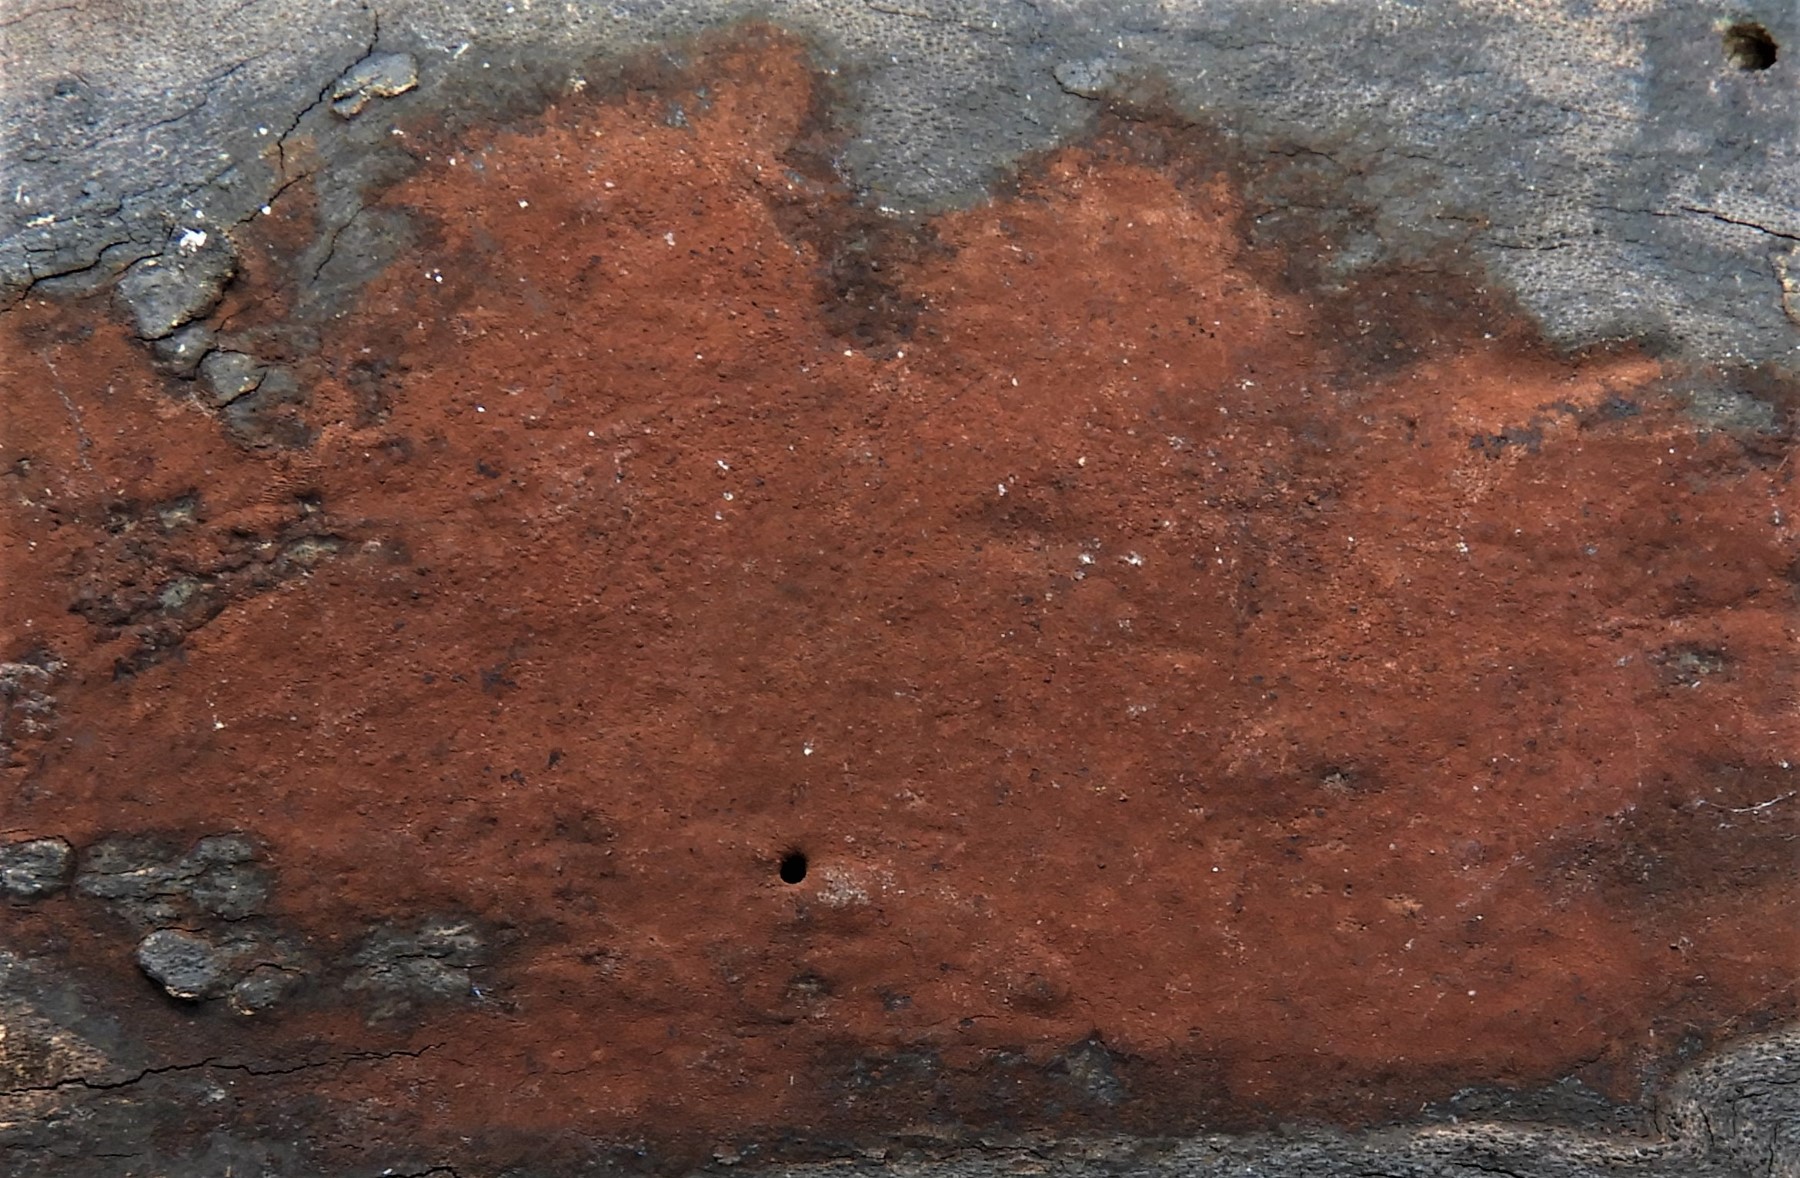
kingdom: Fungi
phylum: Ascomycota
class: Sordariomycetes
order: Xylariales
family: Hypoxylaceae
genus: Hypoxylon
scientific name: Hypoxylon
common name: kulbær
